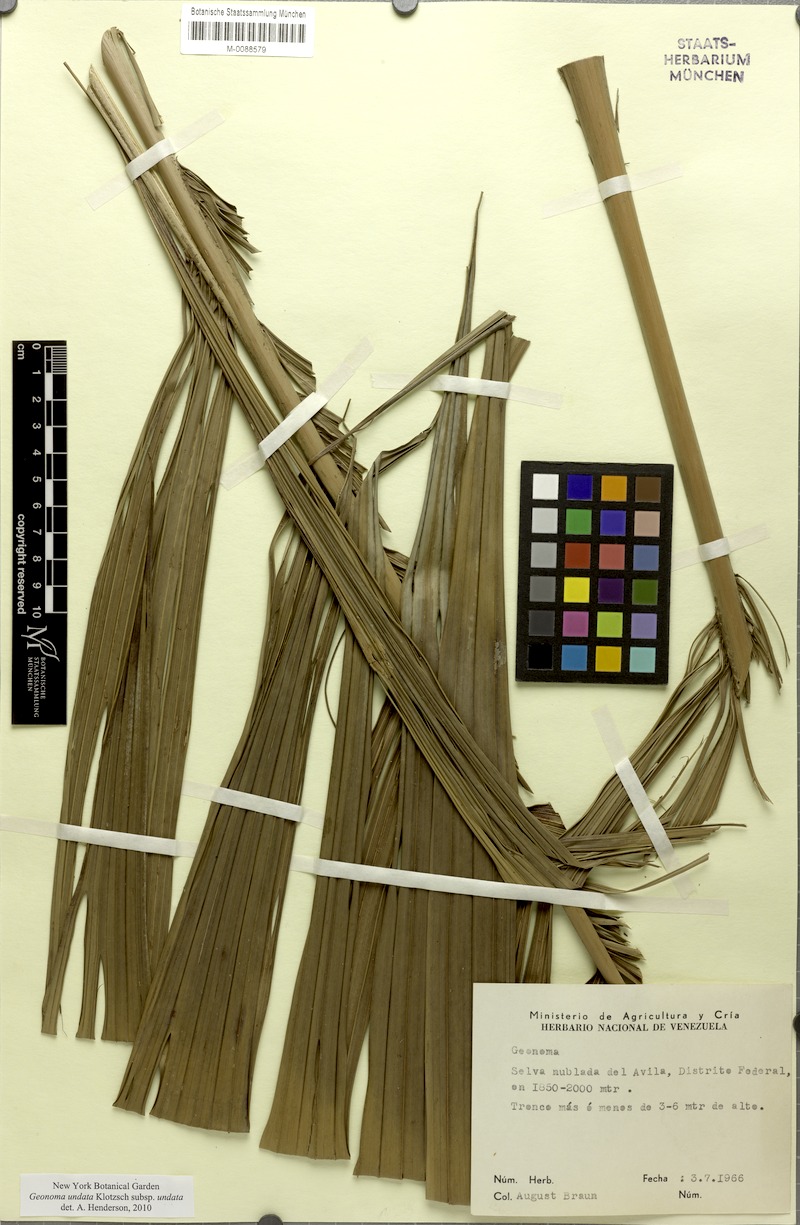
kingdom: Plantae
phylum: Tracheophyta
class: Liliopsida
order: Arecales
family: Arecaceae
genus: Geonoma
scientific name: Geonoma undata
